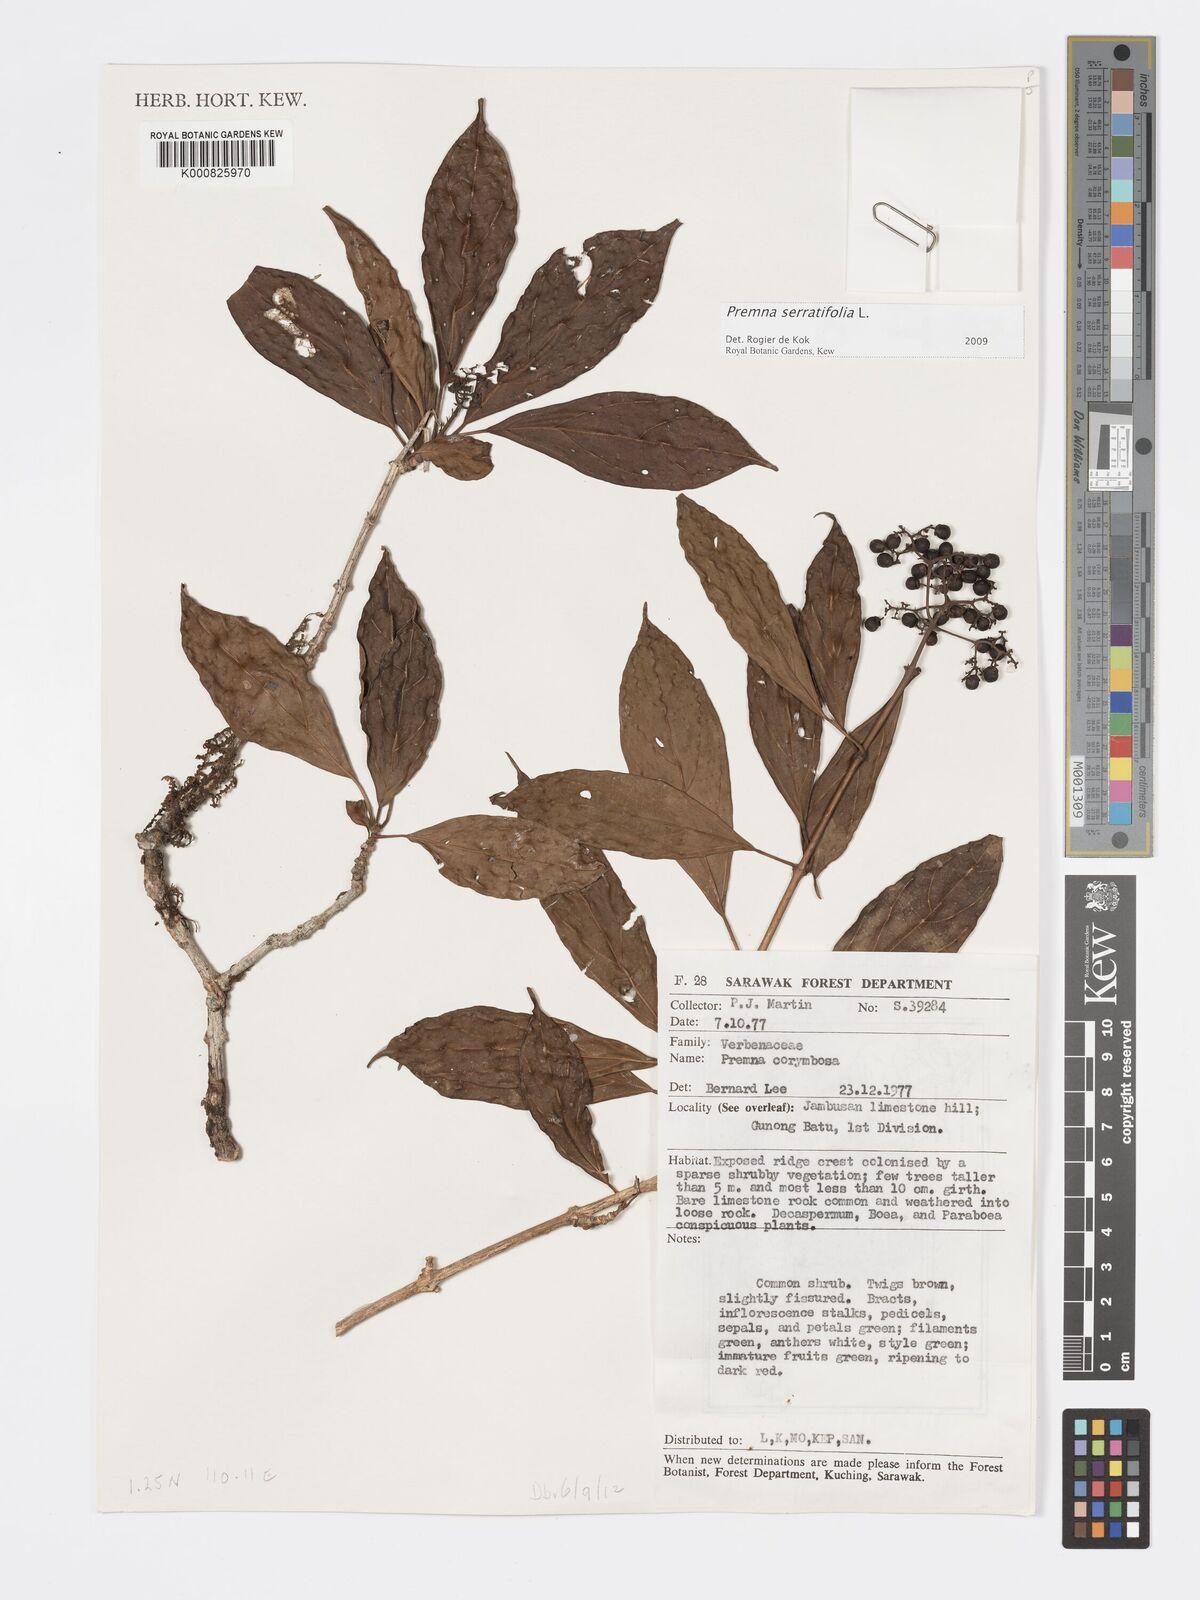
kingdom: Plantae
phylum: Tracheophyta
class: Magnoliopsida
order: Lamiales
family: Lamiaceae
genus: Premna
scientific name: Premna serratifolia
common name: Bastard guelder
